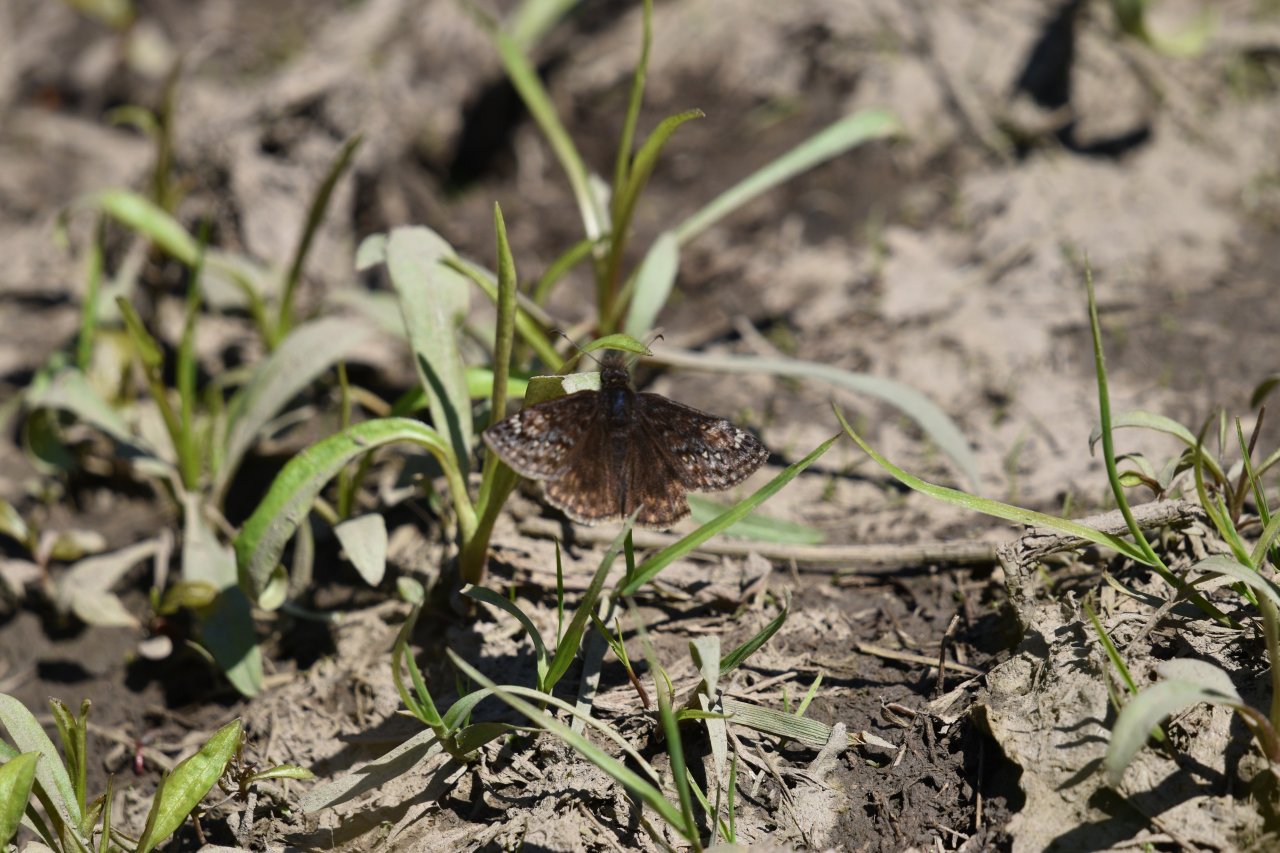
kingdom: Animalia
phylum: Arthropoda
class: Insecta
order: Lepidoptera
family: Hesperiidae
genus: Gesta
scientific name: Gesta
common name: Juvenal's Duskywing
